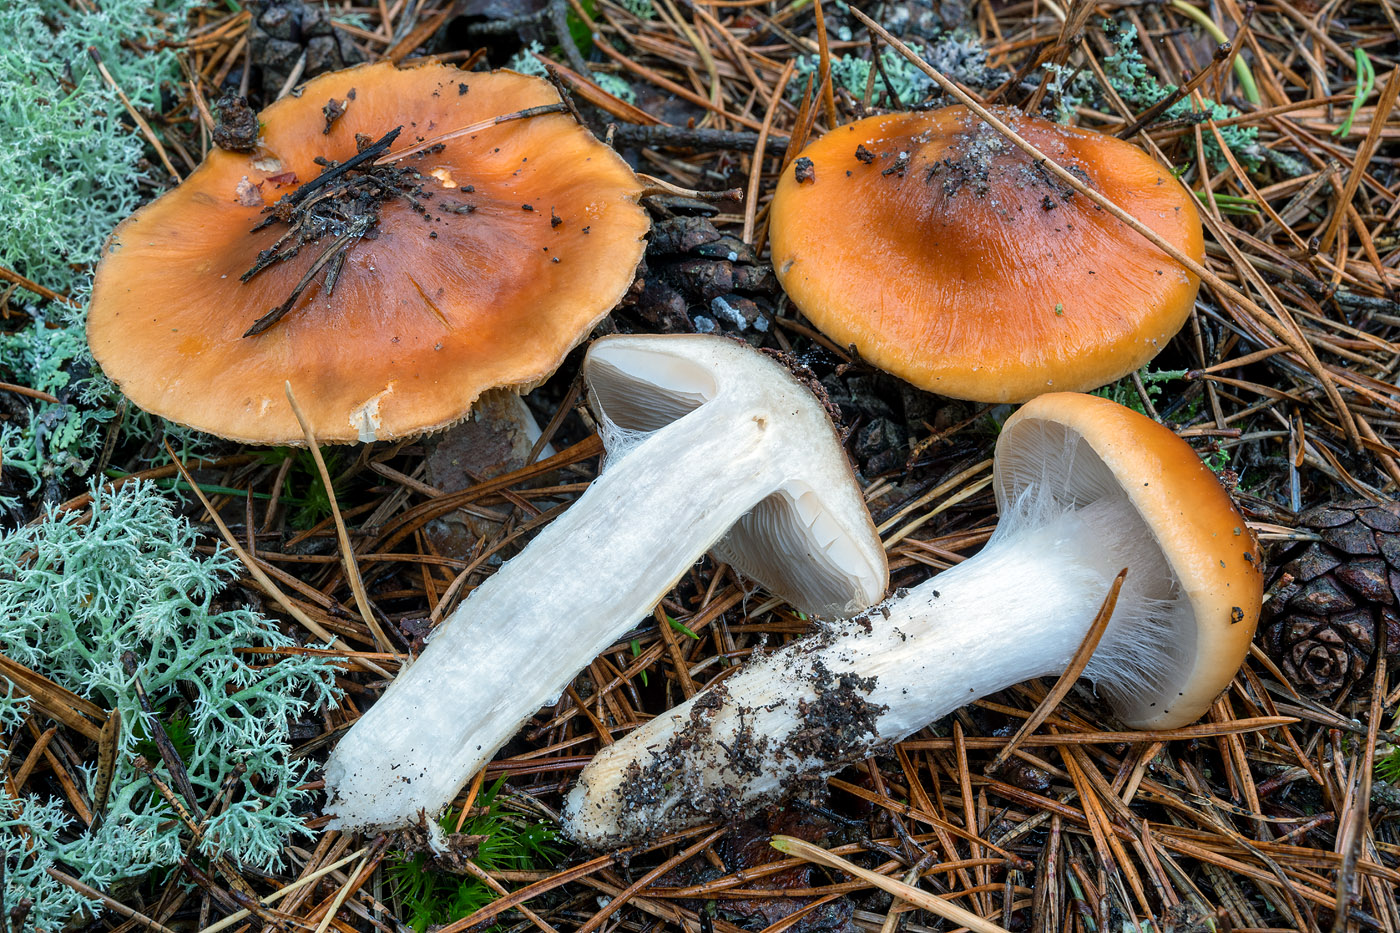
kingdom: Fungi
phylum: Basidiomycota
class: Agaricomycetes
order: Agaricales
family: Cortinariaceae
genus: Cortinarius
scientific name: Cortinarius mucosus
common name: kastaniebrun slørhat
